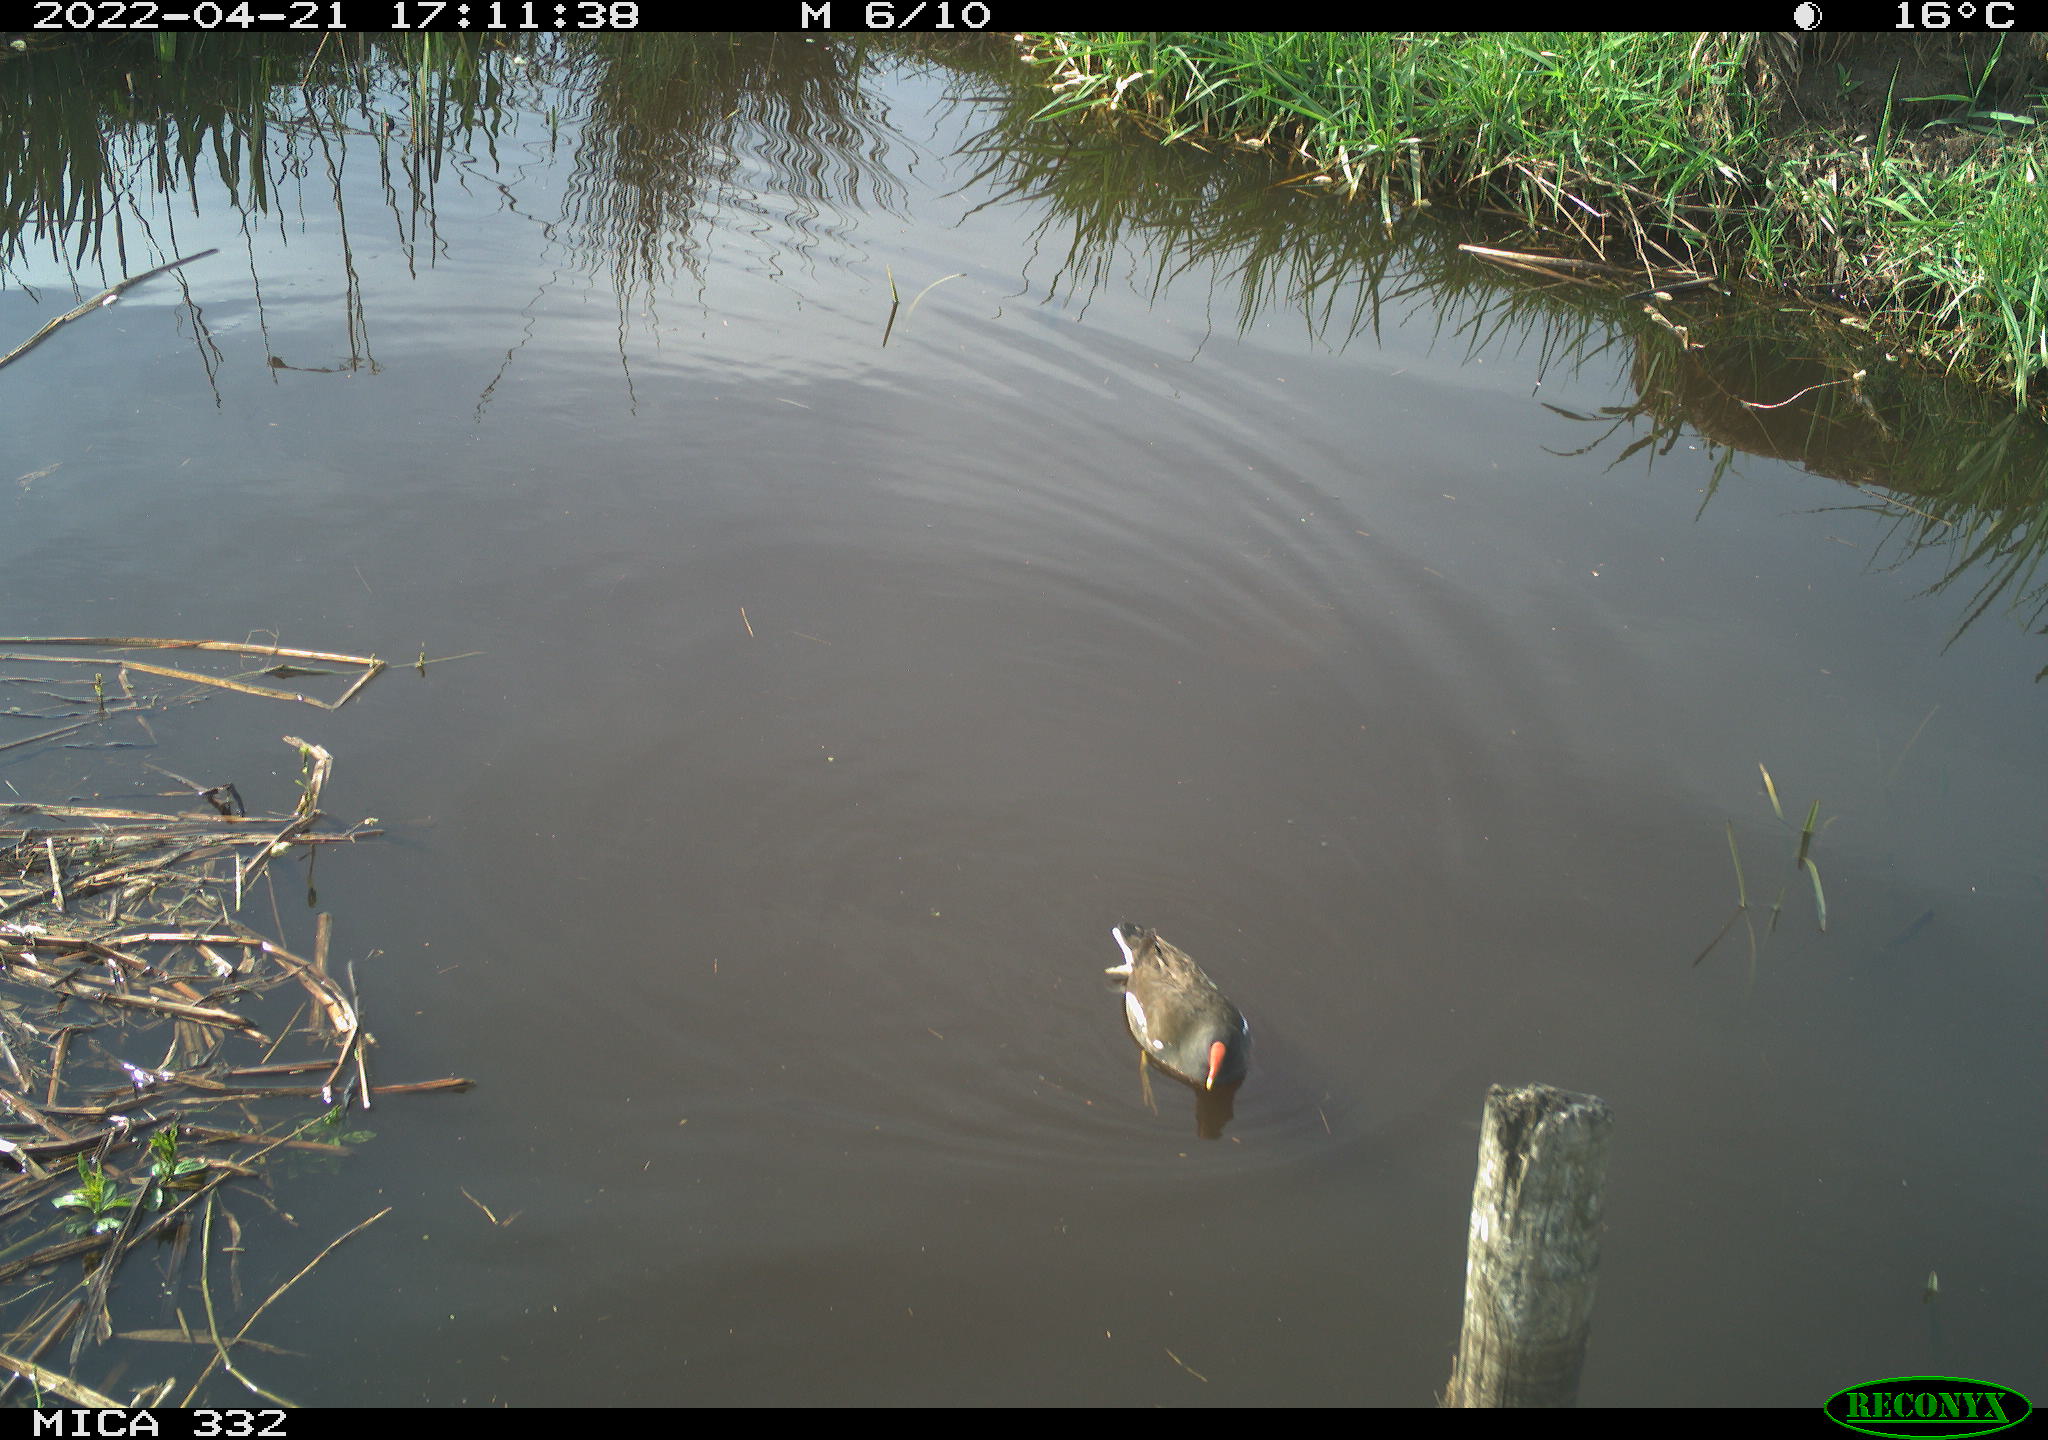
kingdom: Animalia
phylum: Chordata
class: Aves
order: Gruiformes
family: Rallidae
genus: Gallinula
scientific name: Gallinula chloropus
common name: Common moorhen
